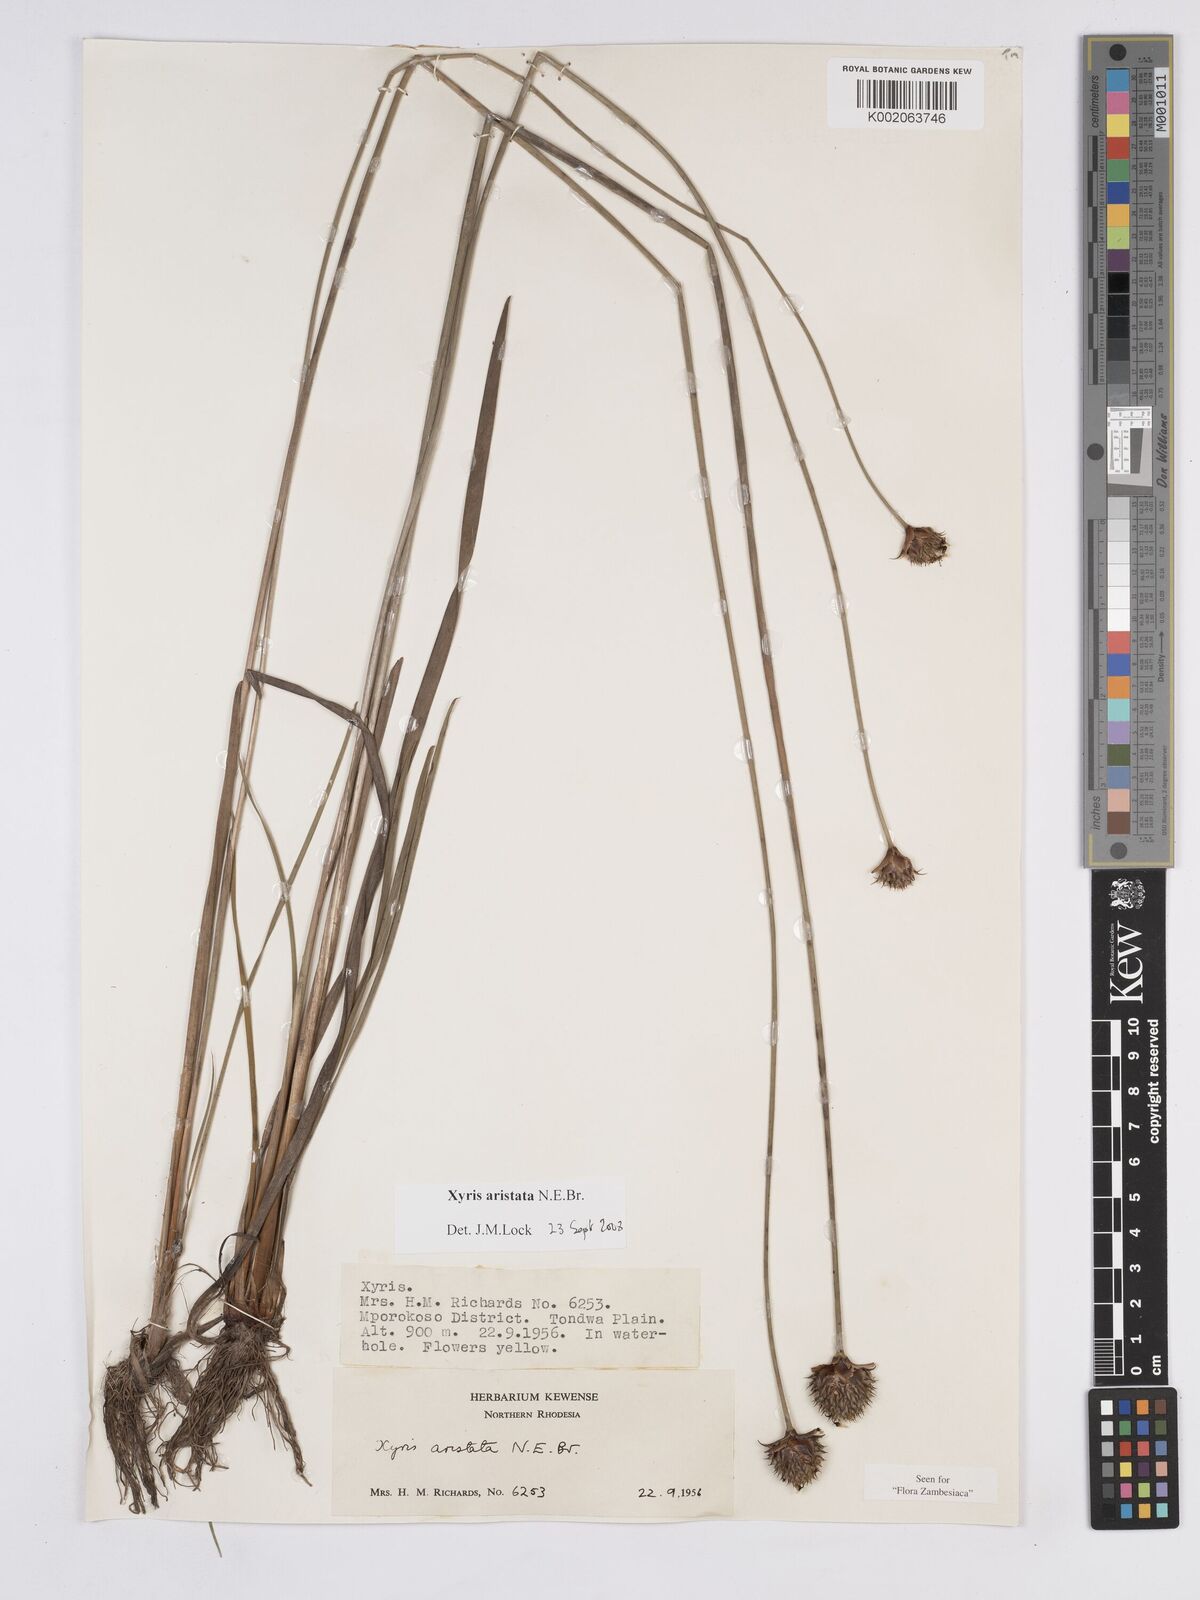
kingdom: Plantae
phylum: Tracheophyta
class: Liliopsida
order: Poales
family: Xyridaceae
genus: Xyris
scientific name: Xyris aristata
